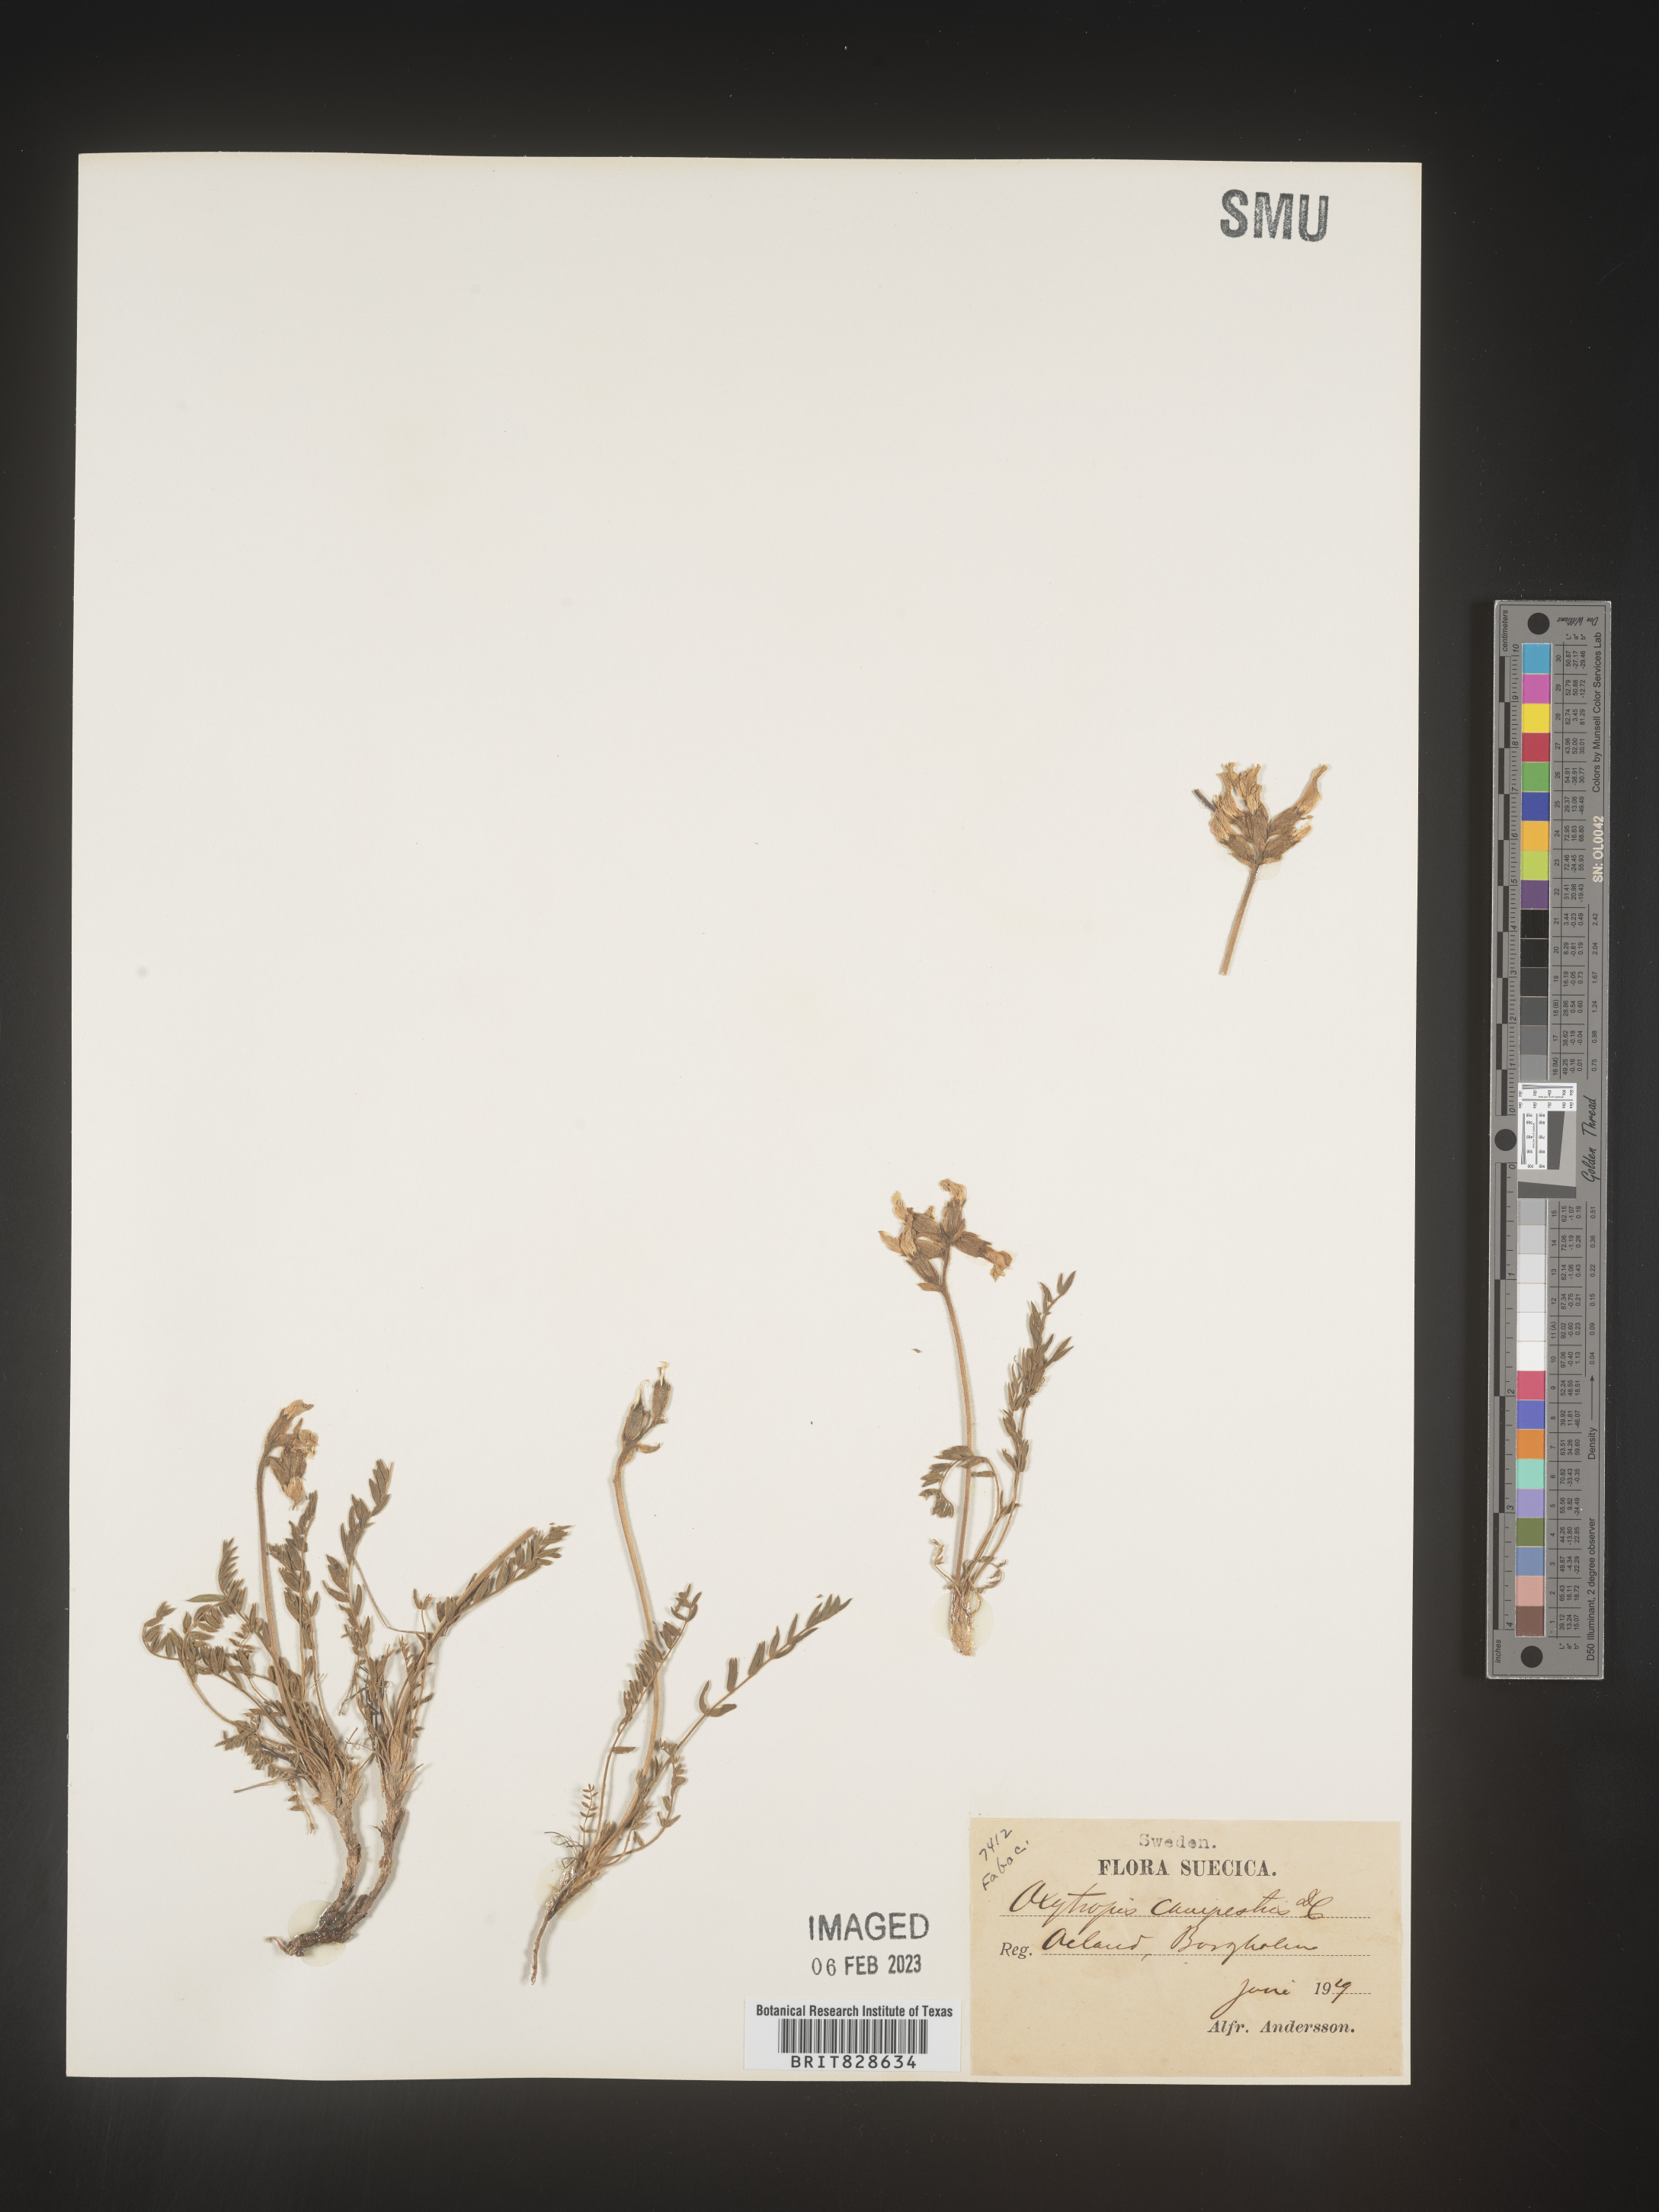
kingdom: Plantae
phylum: Tracheophyta
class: Magnoliopsida
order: Fabales
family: Fabaceae
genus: Oxytropis
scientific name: Oxytropis
